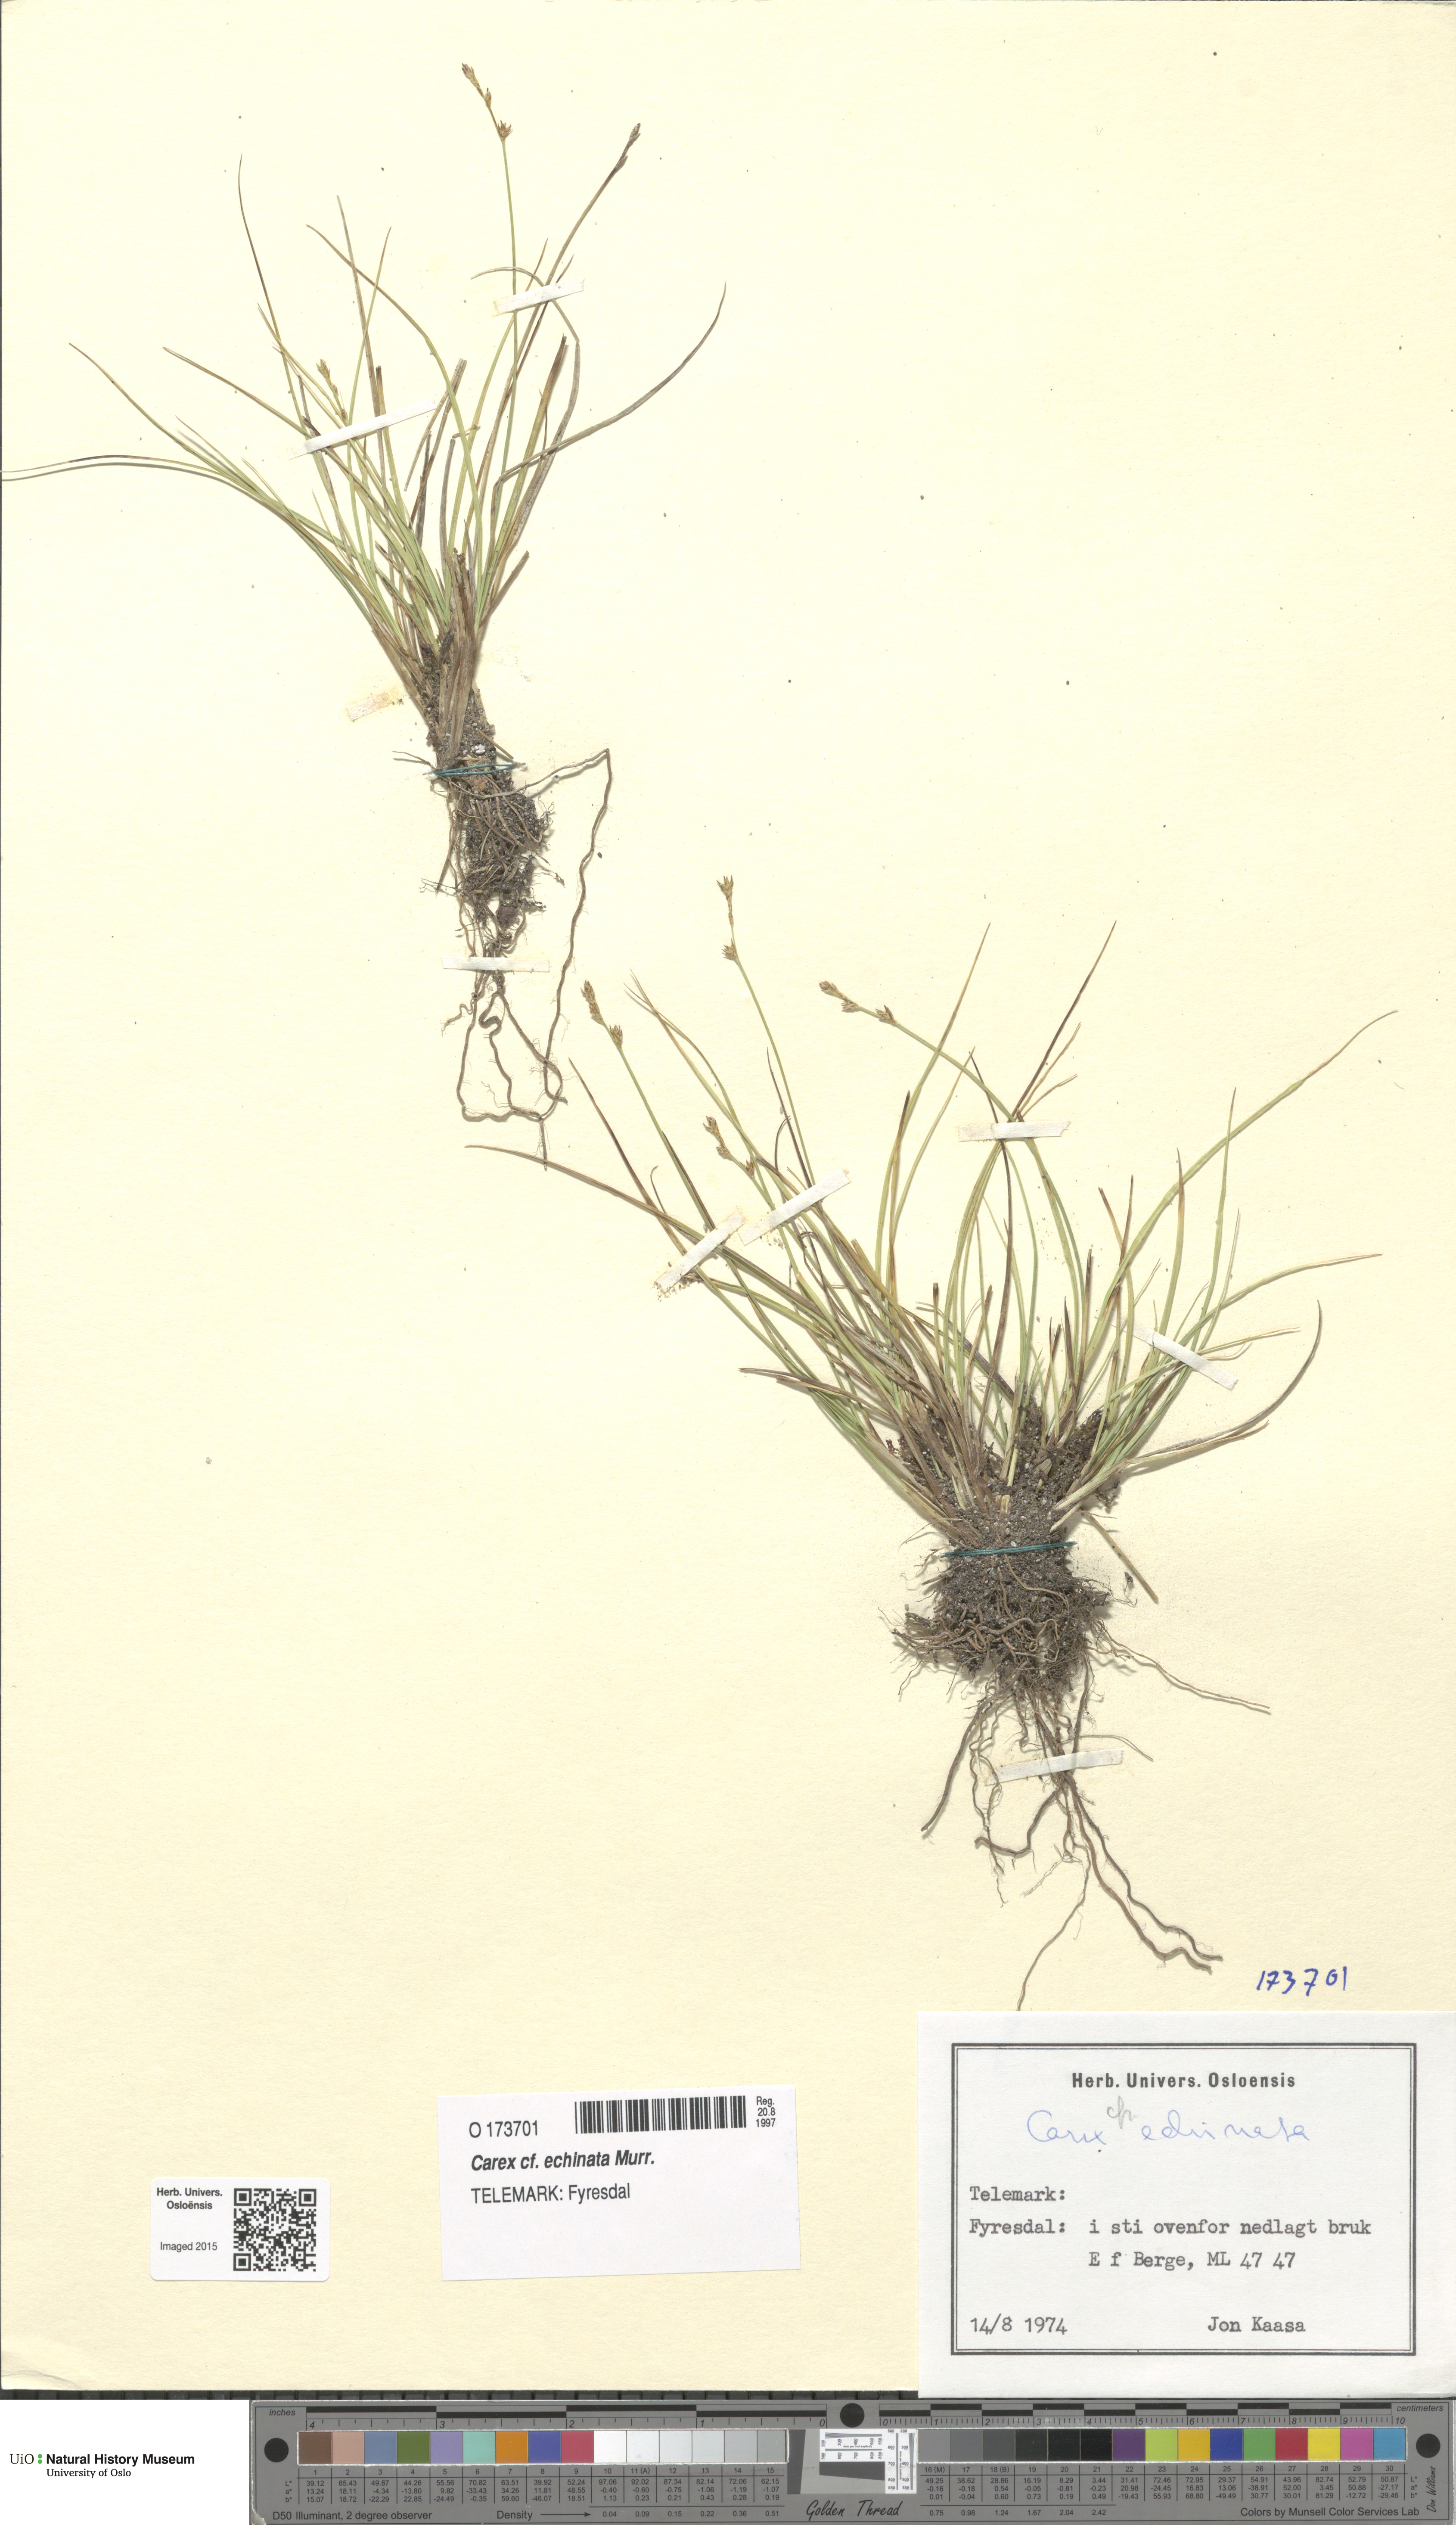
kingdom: Plantae
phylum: Tracheophyta
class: Liliopsida
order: Poales
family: Cyperaceae
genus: Carex
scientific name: Carex echinata
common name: Star sedge
